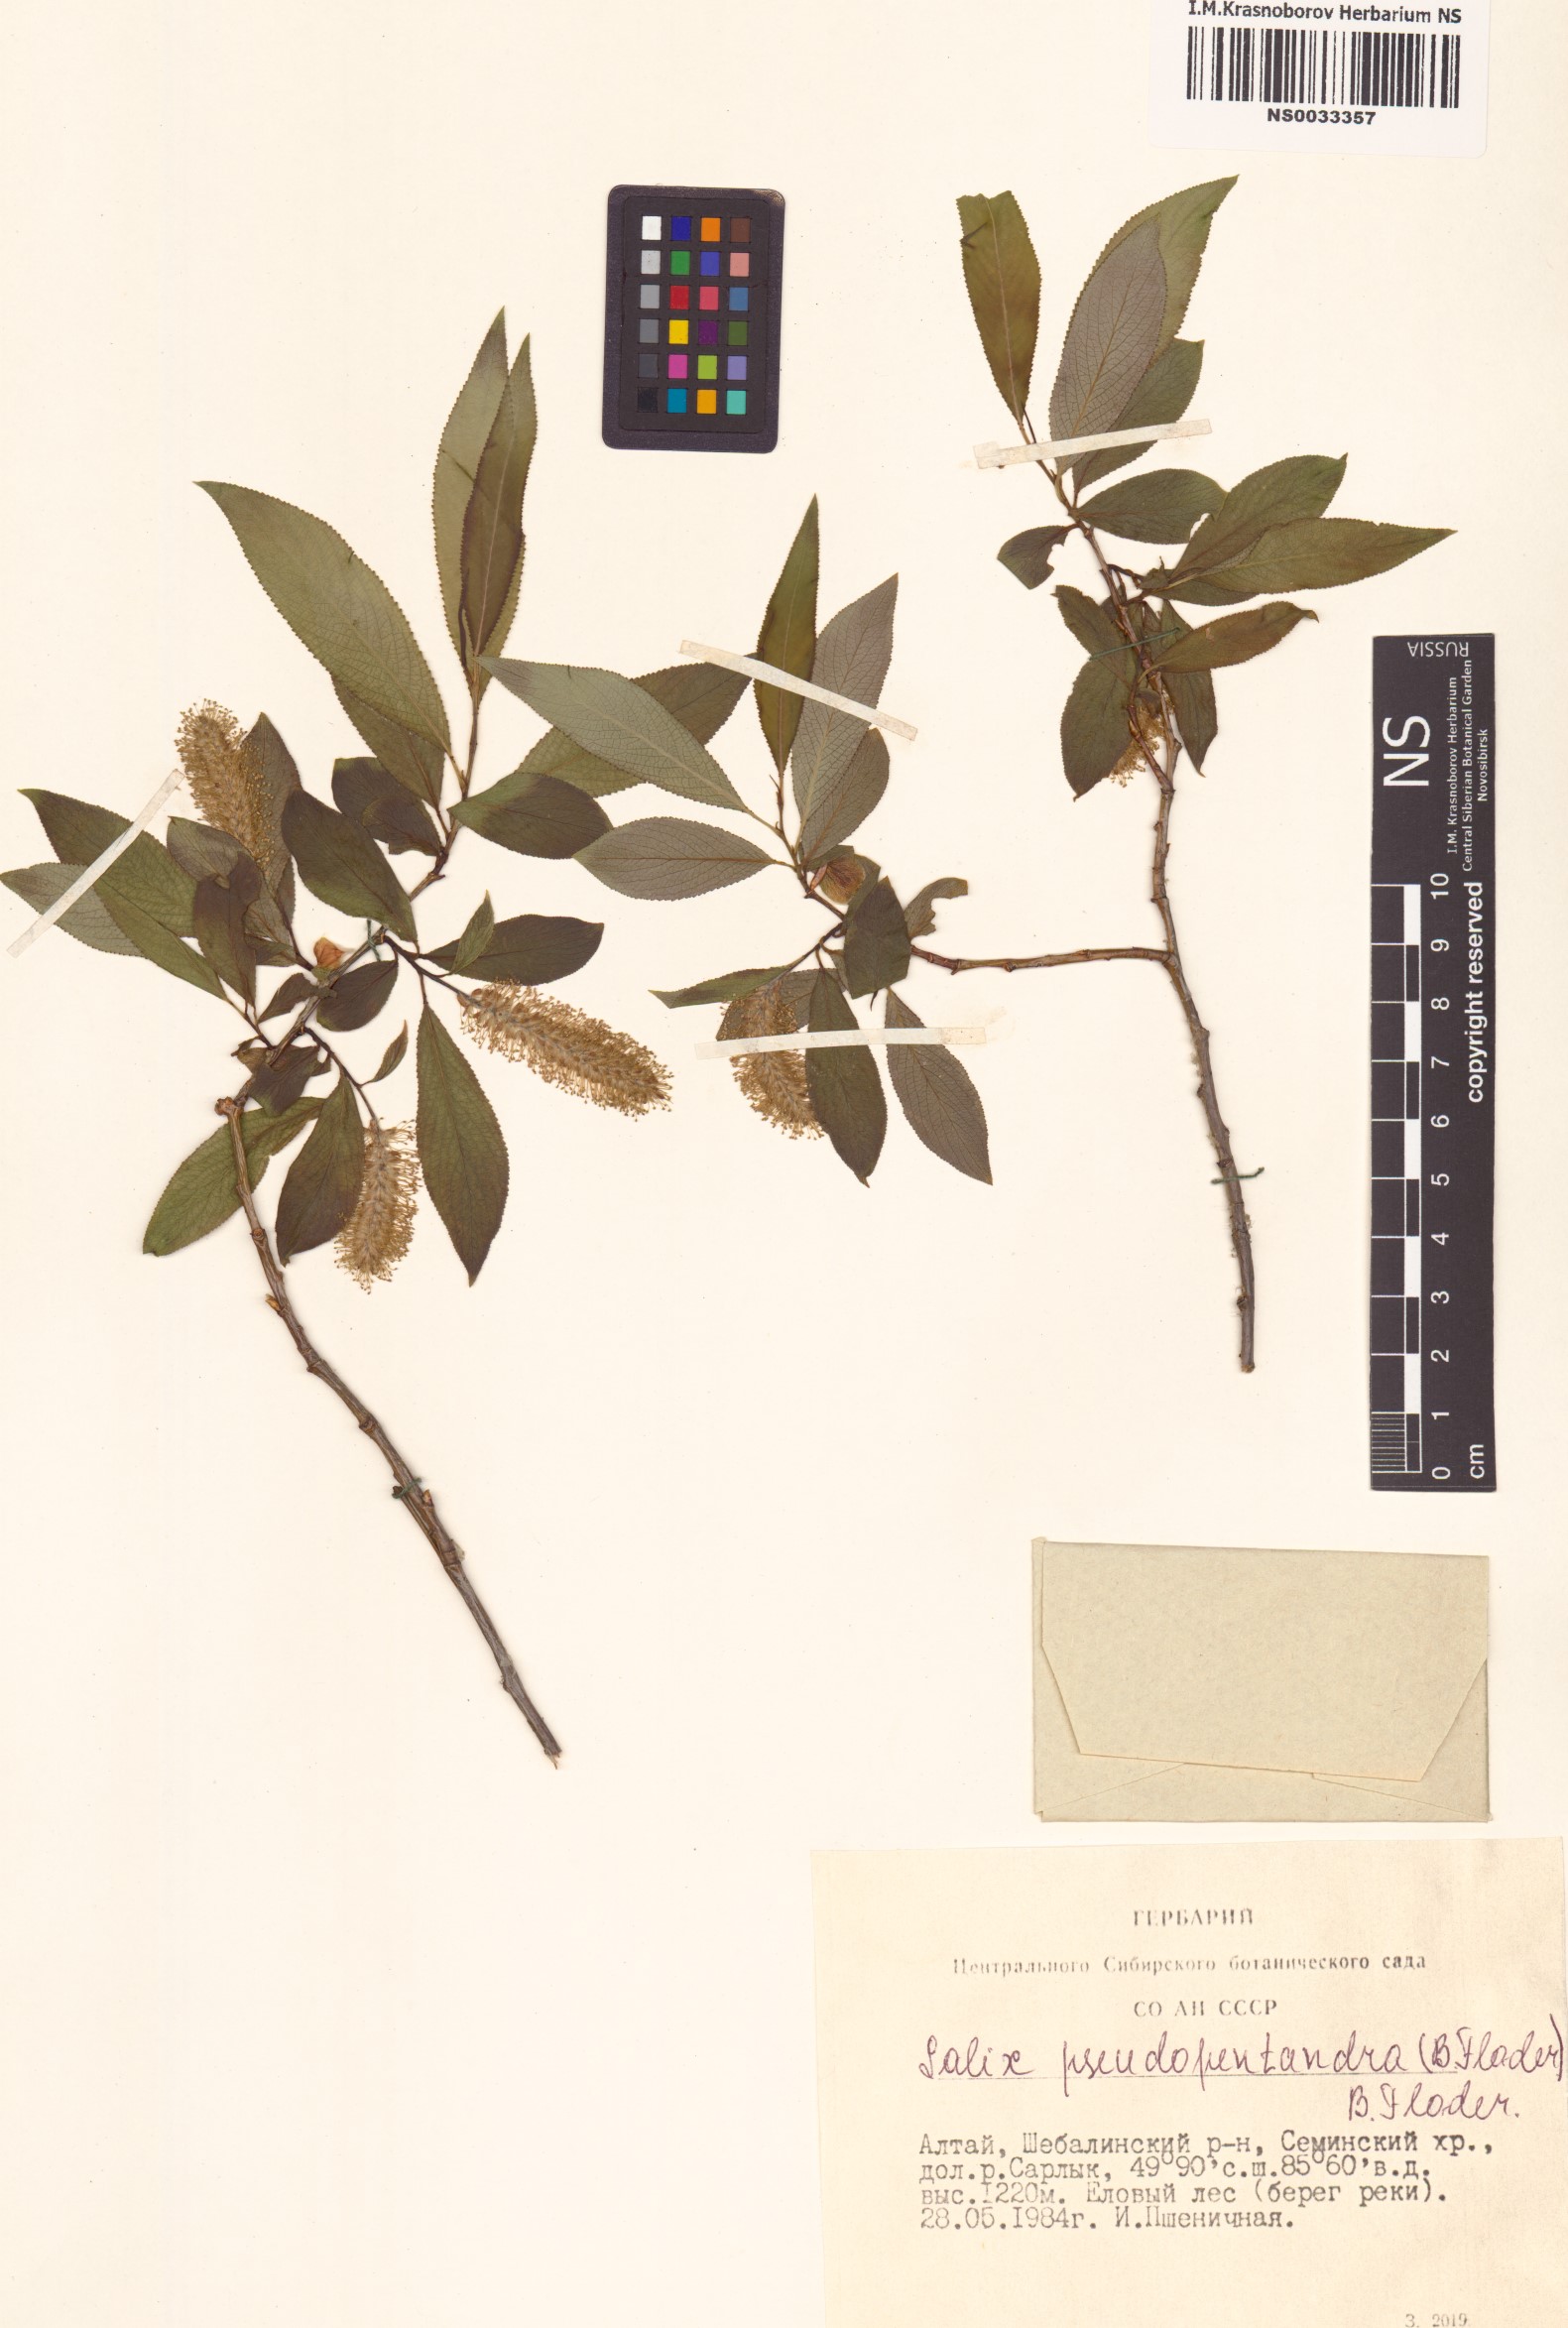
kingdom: Plantae
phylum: Tracheophyta
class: Magnoliopsida
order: Malpighiales
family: Salicaceae
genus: Salix
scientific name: Salix pseudopentandra
